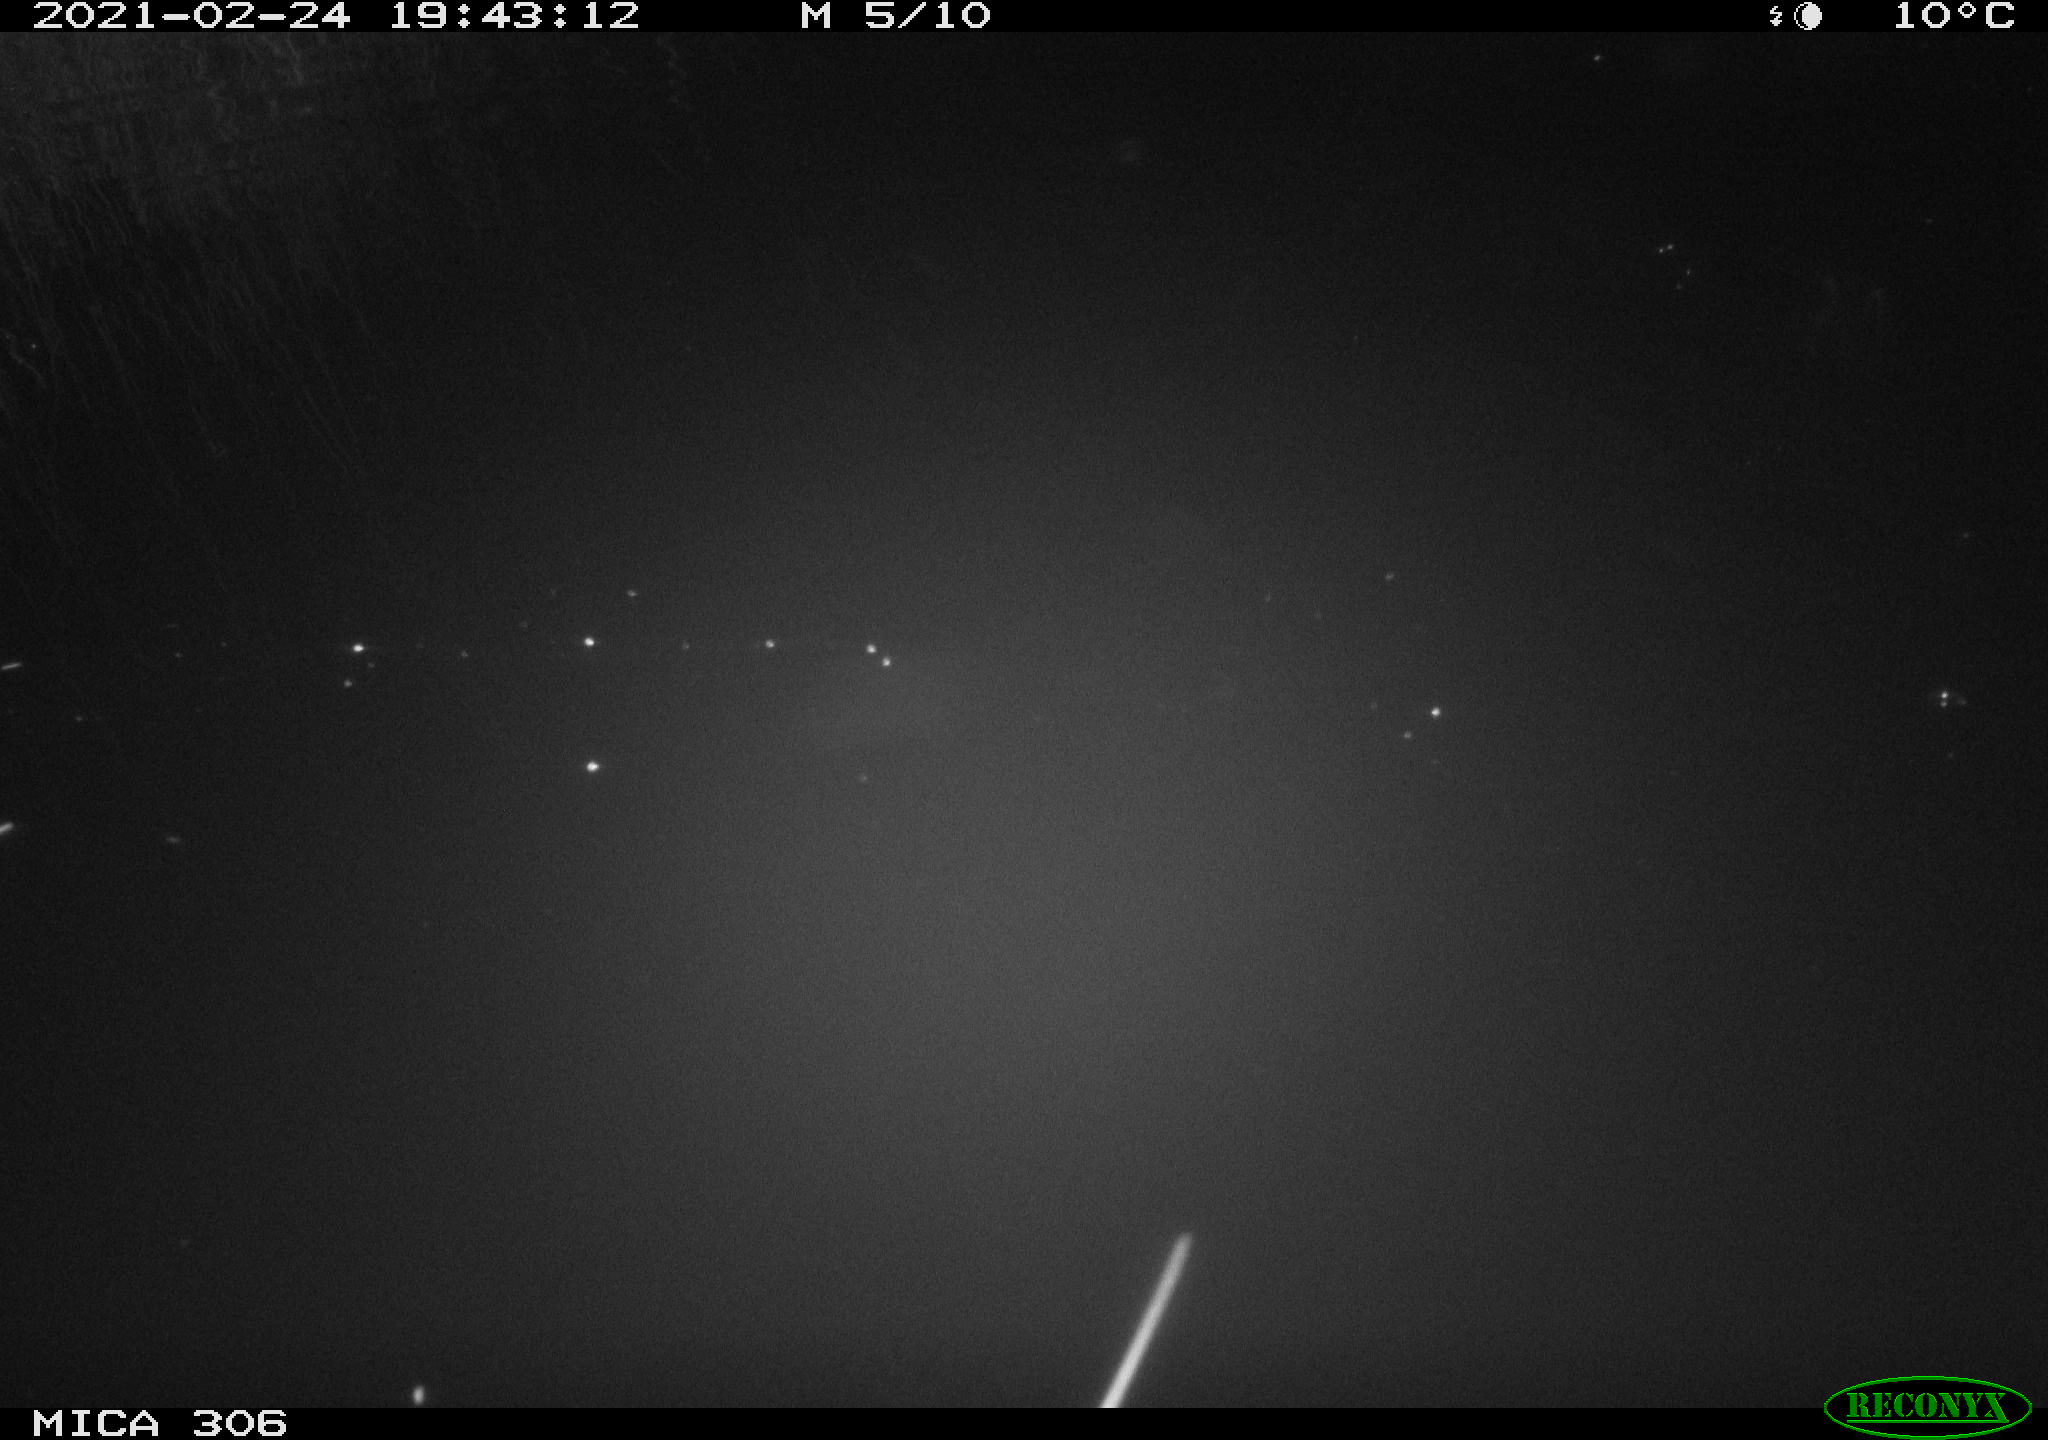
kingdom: Animalia
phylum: Chordata
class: Mammalia
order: Rodentia
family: Muridae
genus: Rattus
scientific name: Rattus norvegicus
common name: Brown rat
